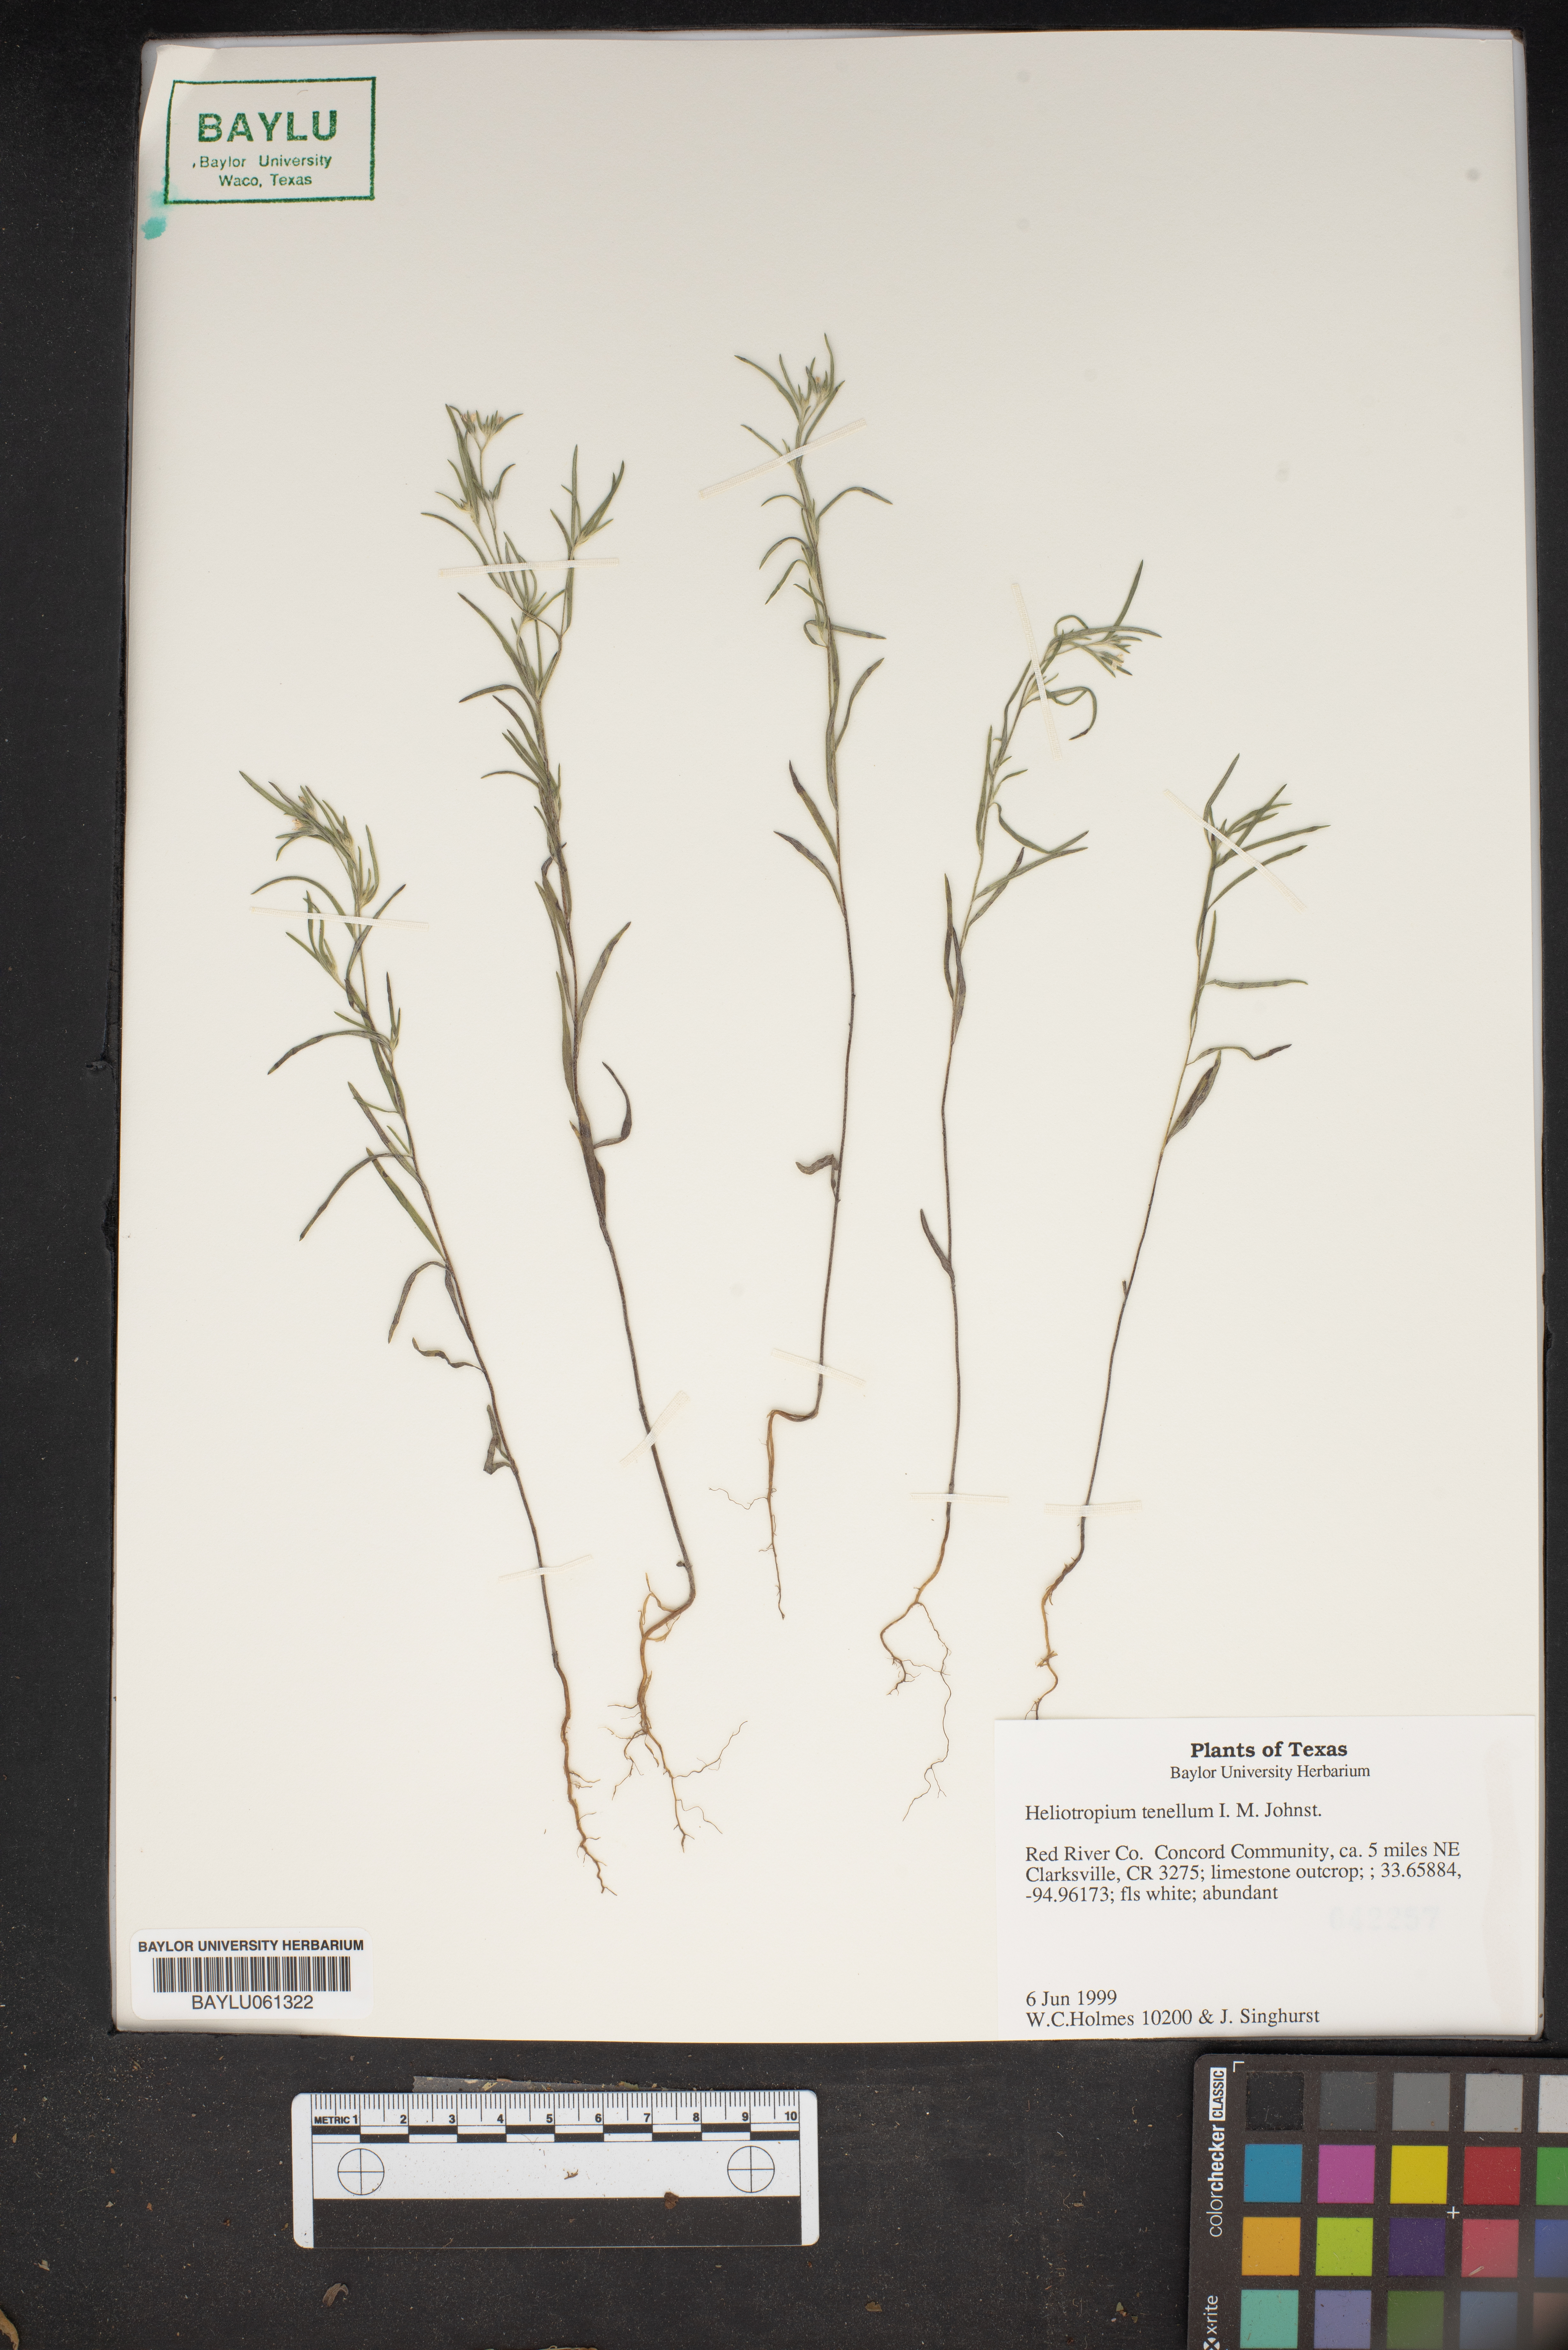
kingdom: Plantae
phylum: Tracheophyta
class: Magnoliopsida
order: Boraginales
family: Heliotropiaceae
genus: Euploca
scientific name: Euploca tenella
